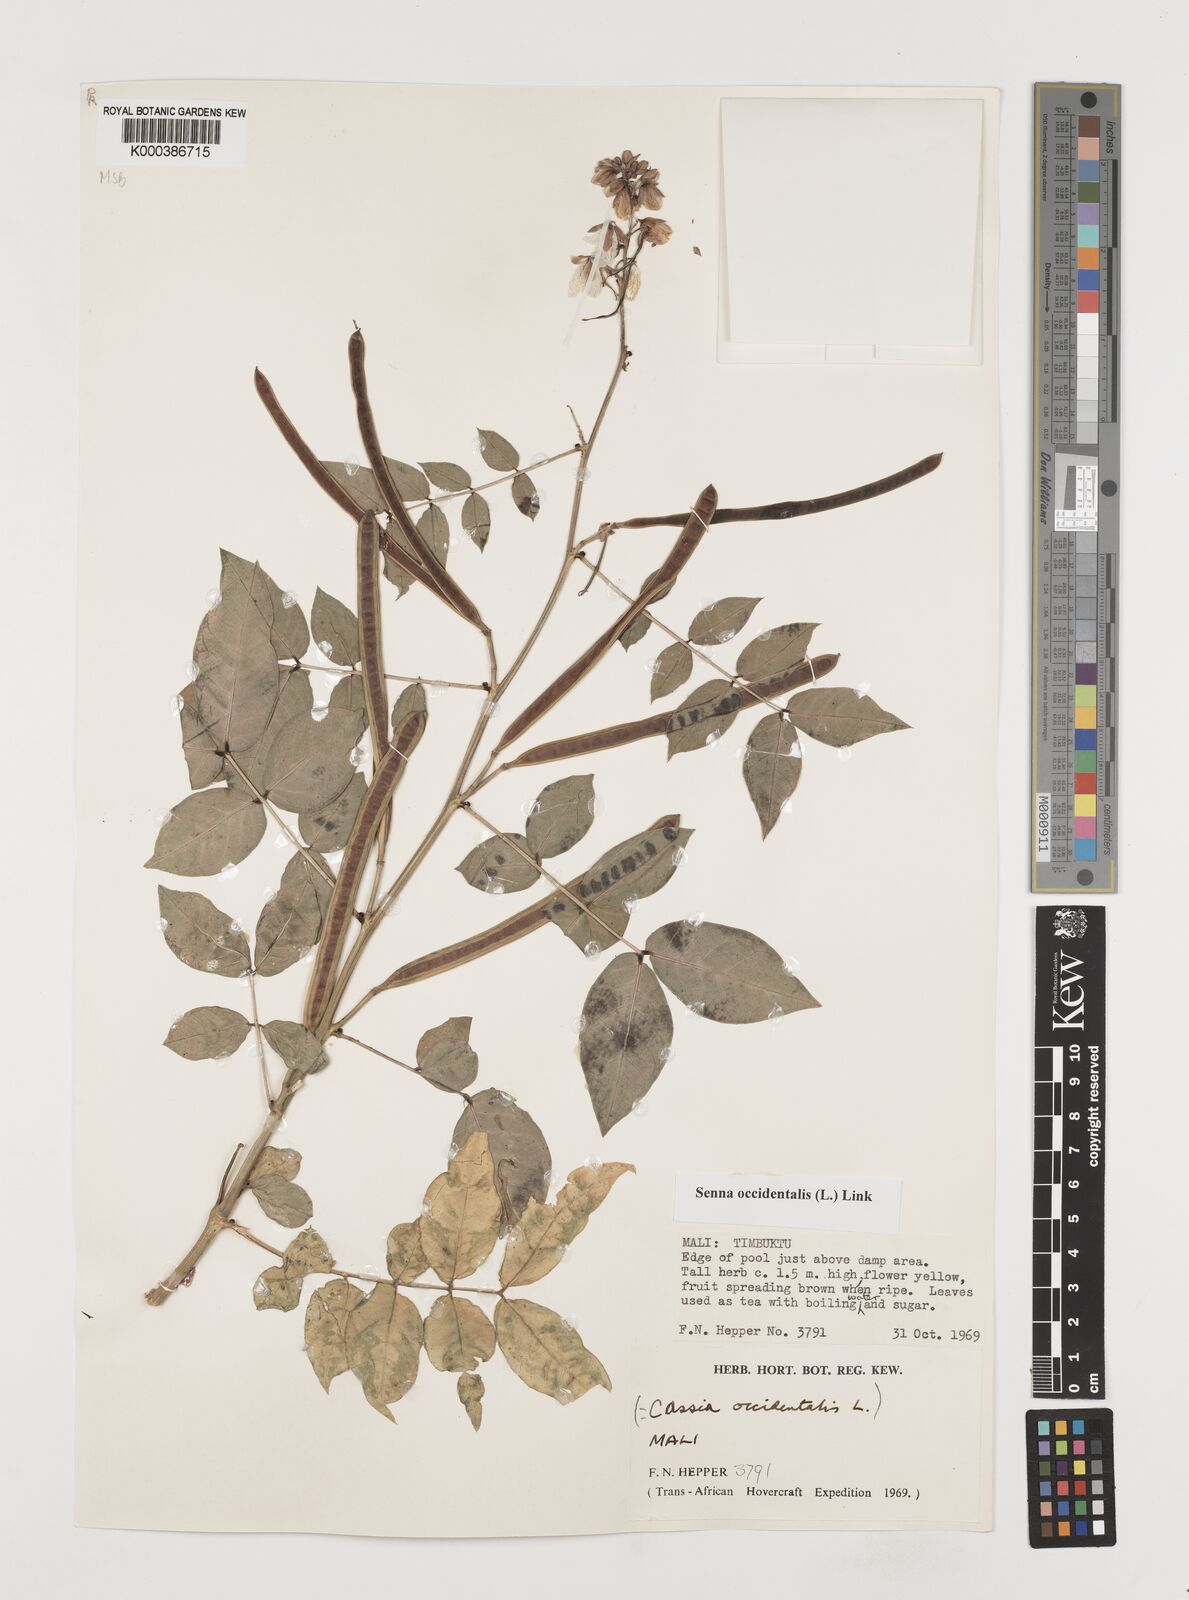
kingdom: Plantae
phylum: Tracheophyta
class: Magnoliopsida
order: Fabales
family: Fabaceae
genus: Senna
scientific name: Senna occidentalis
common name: Septicweed
